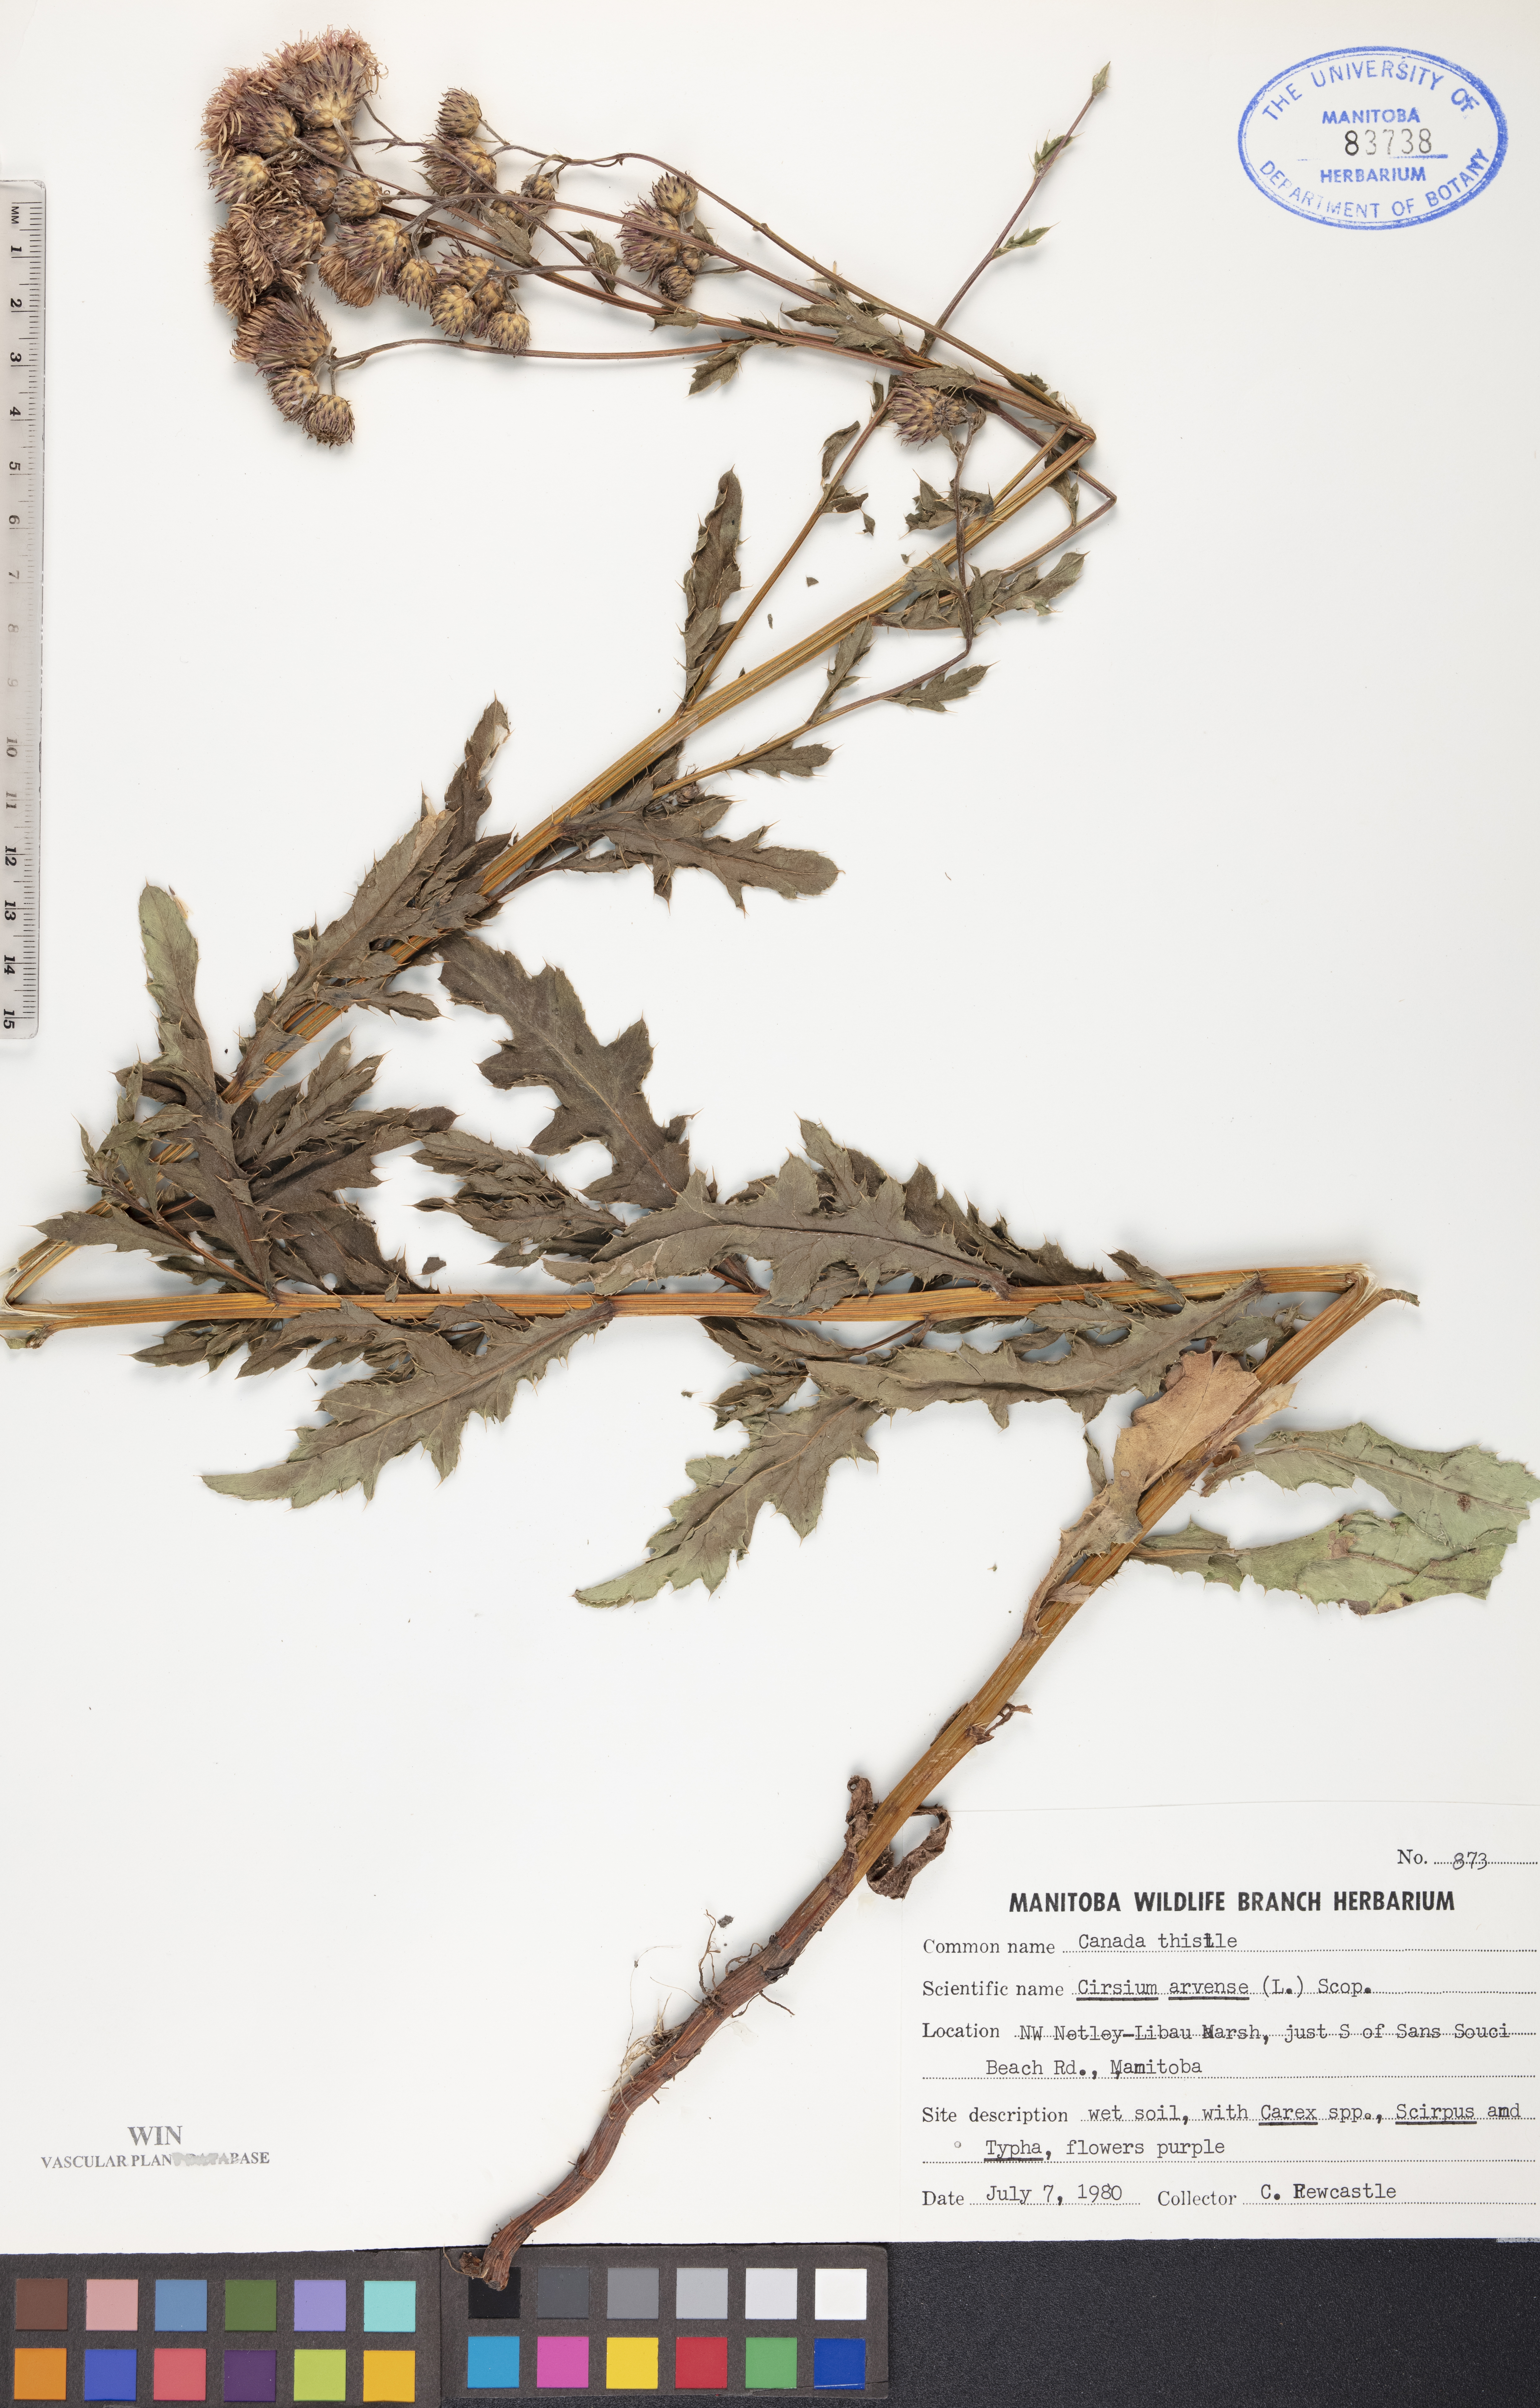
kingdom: Plantae
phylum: Tracheophyta
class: Magnoliopsida
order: Asterales
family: Asteraceae
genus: Cirsium
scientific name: Cirsium arvense
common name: Creeping thistle
